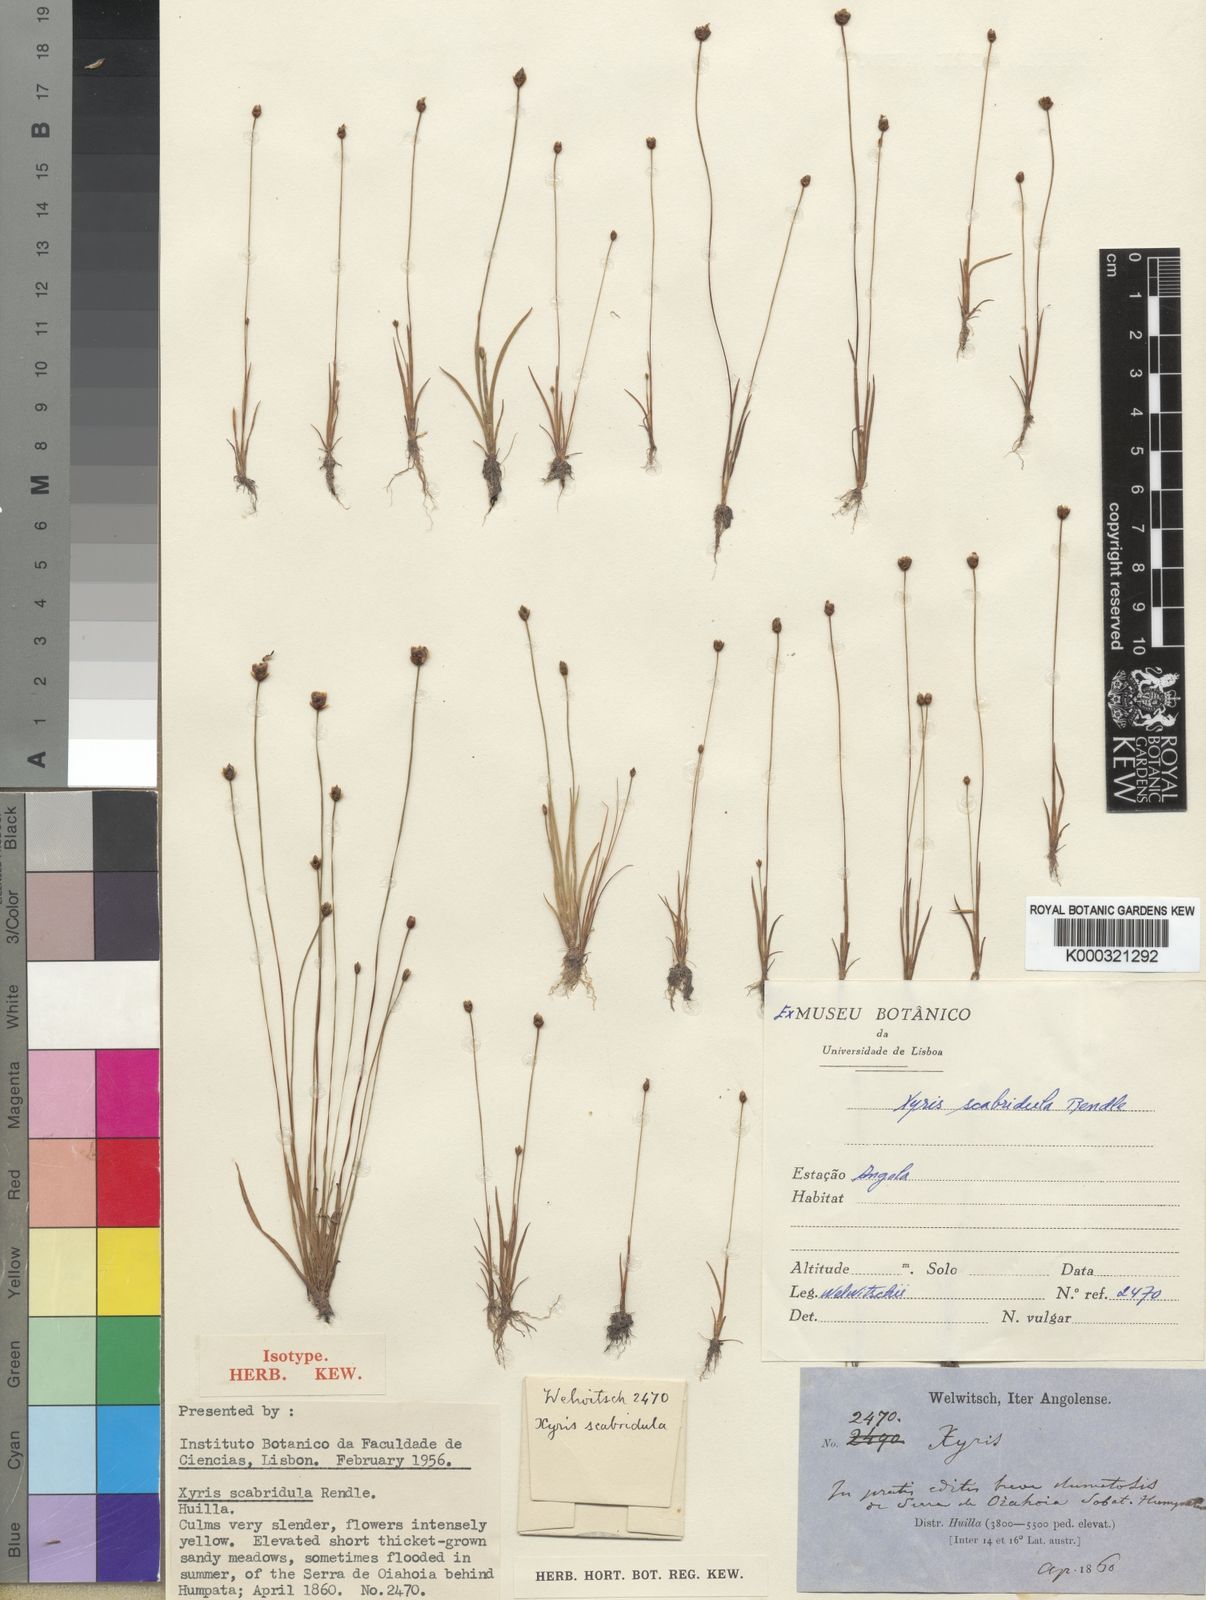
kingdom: Plantae
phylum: Tracheophyta
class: Liliopsida
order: Poales
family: Xyridaceae
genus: Xyris
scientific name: Xyris scabridula
